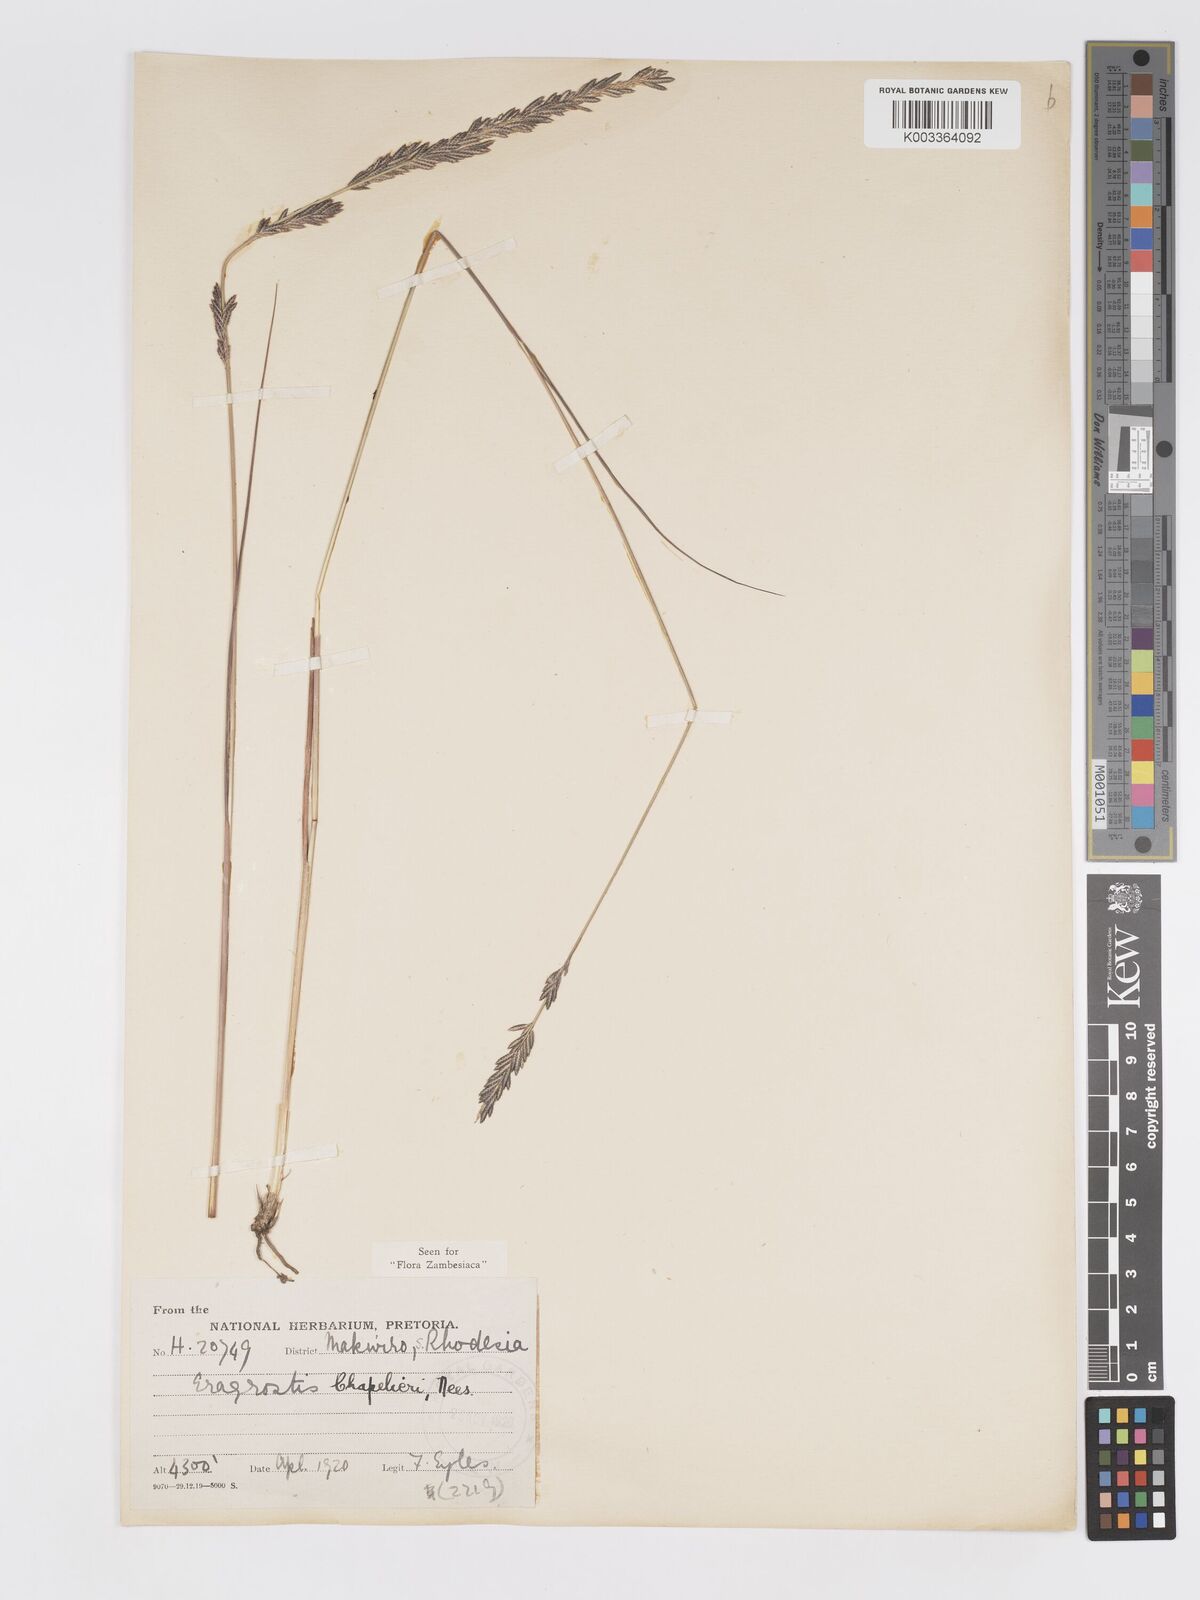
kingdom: Plantae
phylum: Tracheophyta
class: Liliopsida
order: Poales
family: Poaceae
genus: Eragrostis
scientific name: Eragrostis chapelieri
